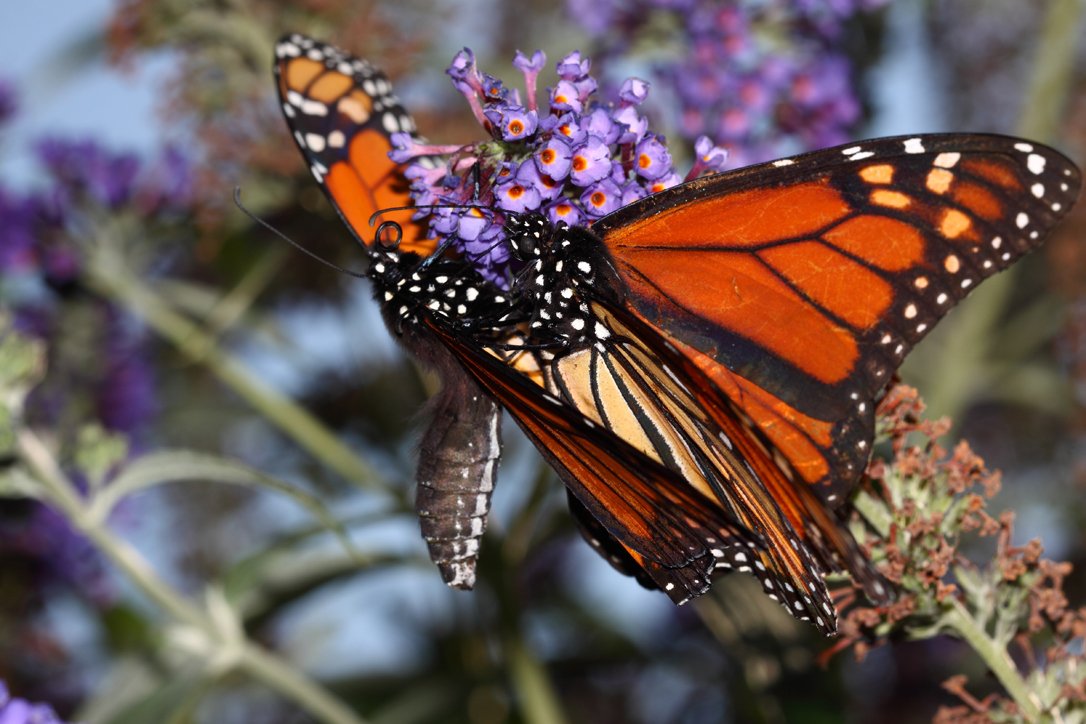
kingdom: Animalia
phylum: Arthropoda
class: Insecta
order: Lepidoptera
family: Nymphalidae
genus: Danaus
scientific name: Danaus plexippus
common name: Monarch
